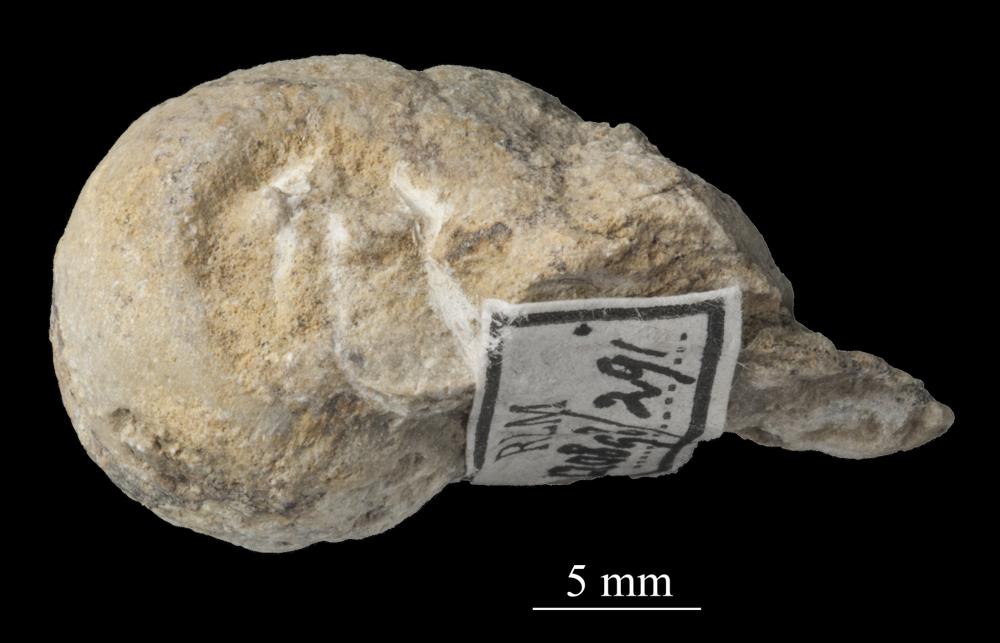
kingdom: Animalia
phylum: Mollusca
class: Gastropoda
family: Bellerophontidae
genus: Bellerophon
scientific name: Bellerophon
